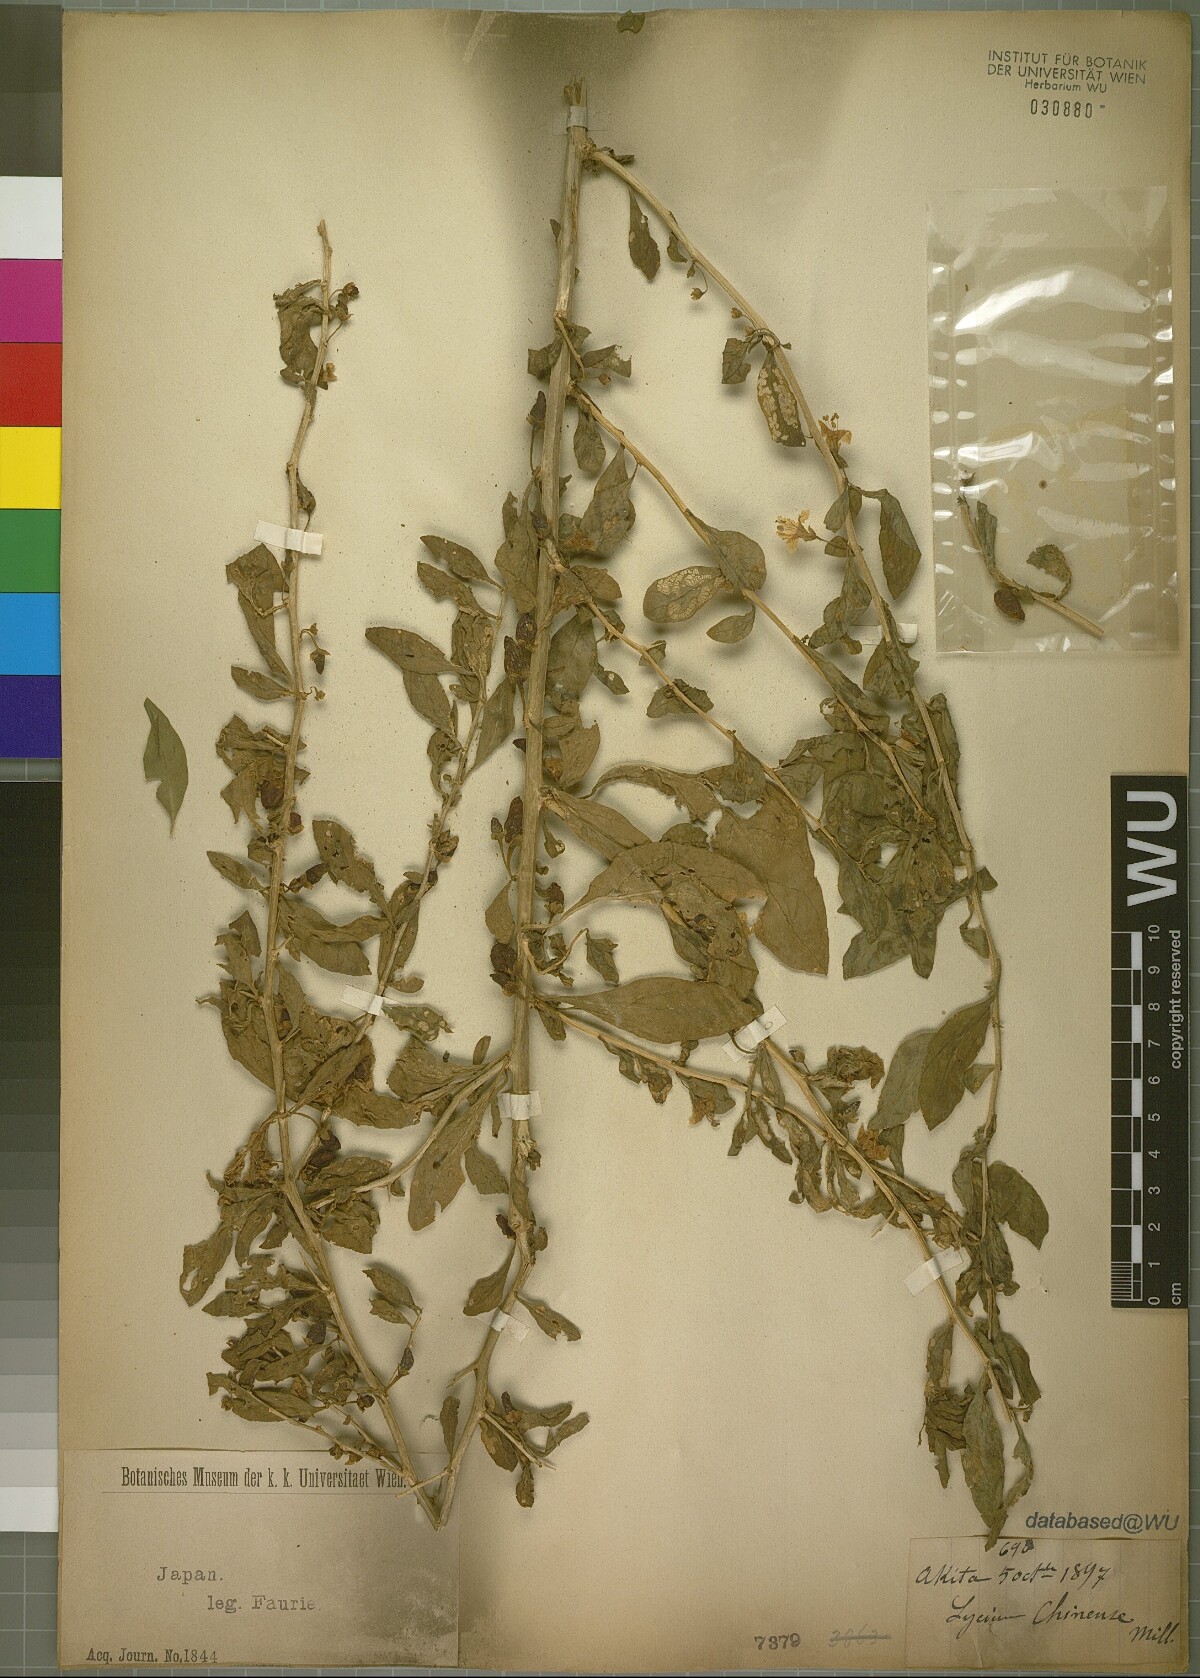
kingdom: Plantae
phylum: Tracheophyta
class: Magnoliopsida
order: Solanales
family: Solanaceae
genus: Lycium
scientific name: Lycium chinense
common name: Chinese teaplant
